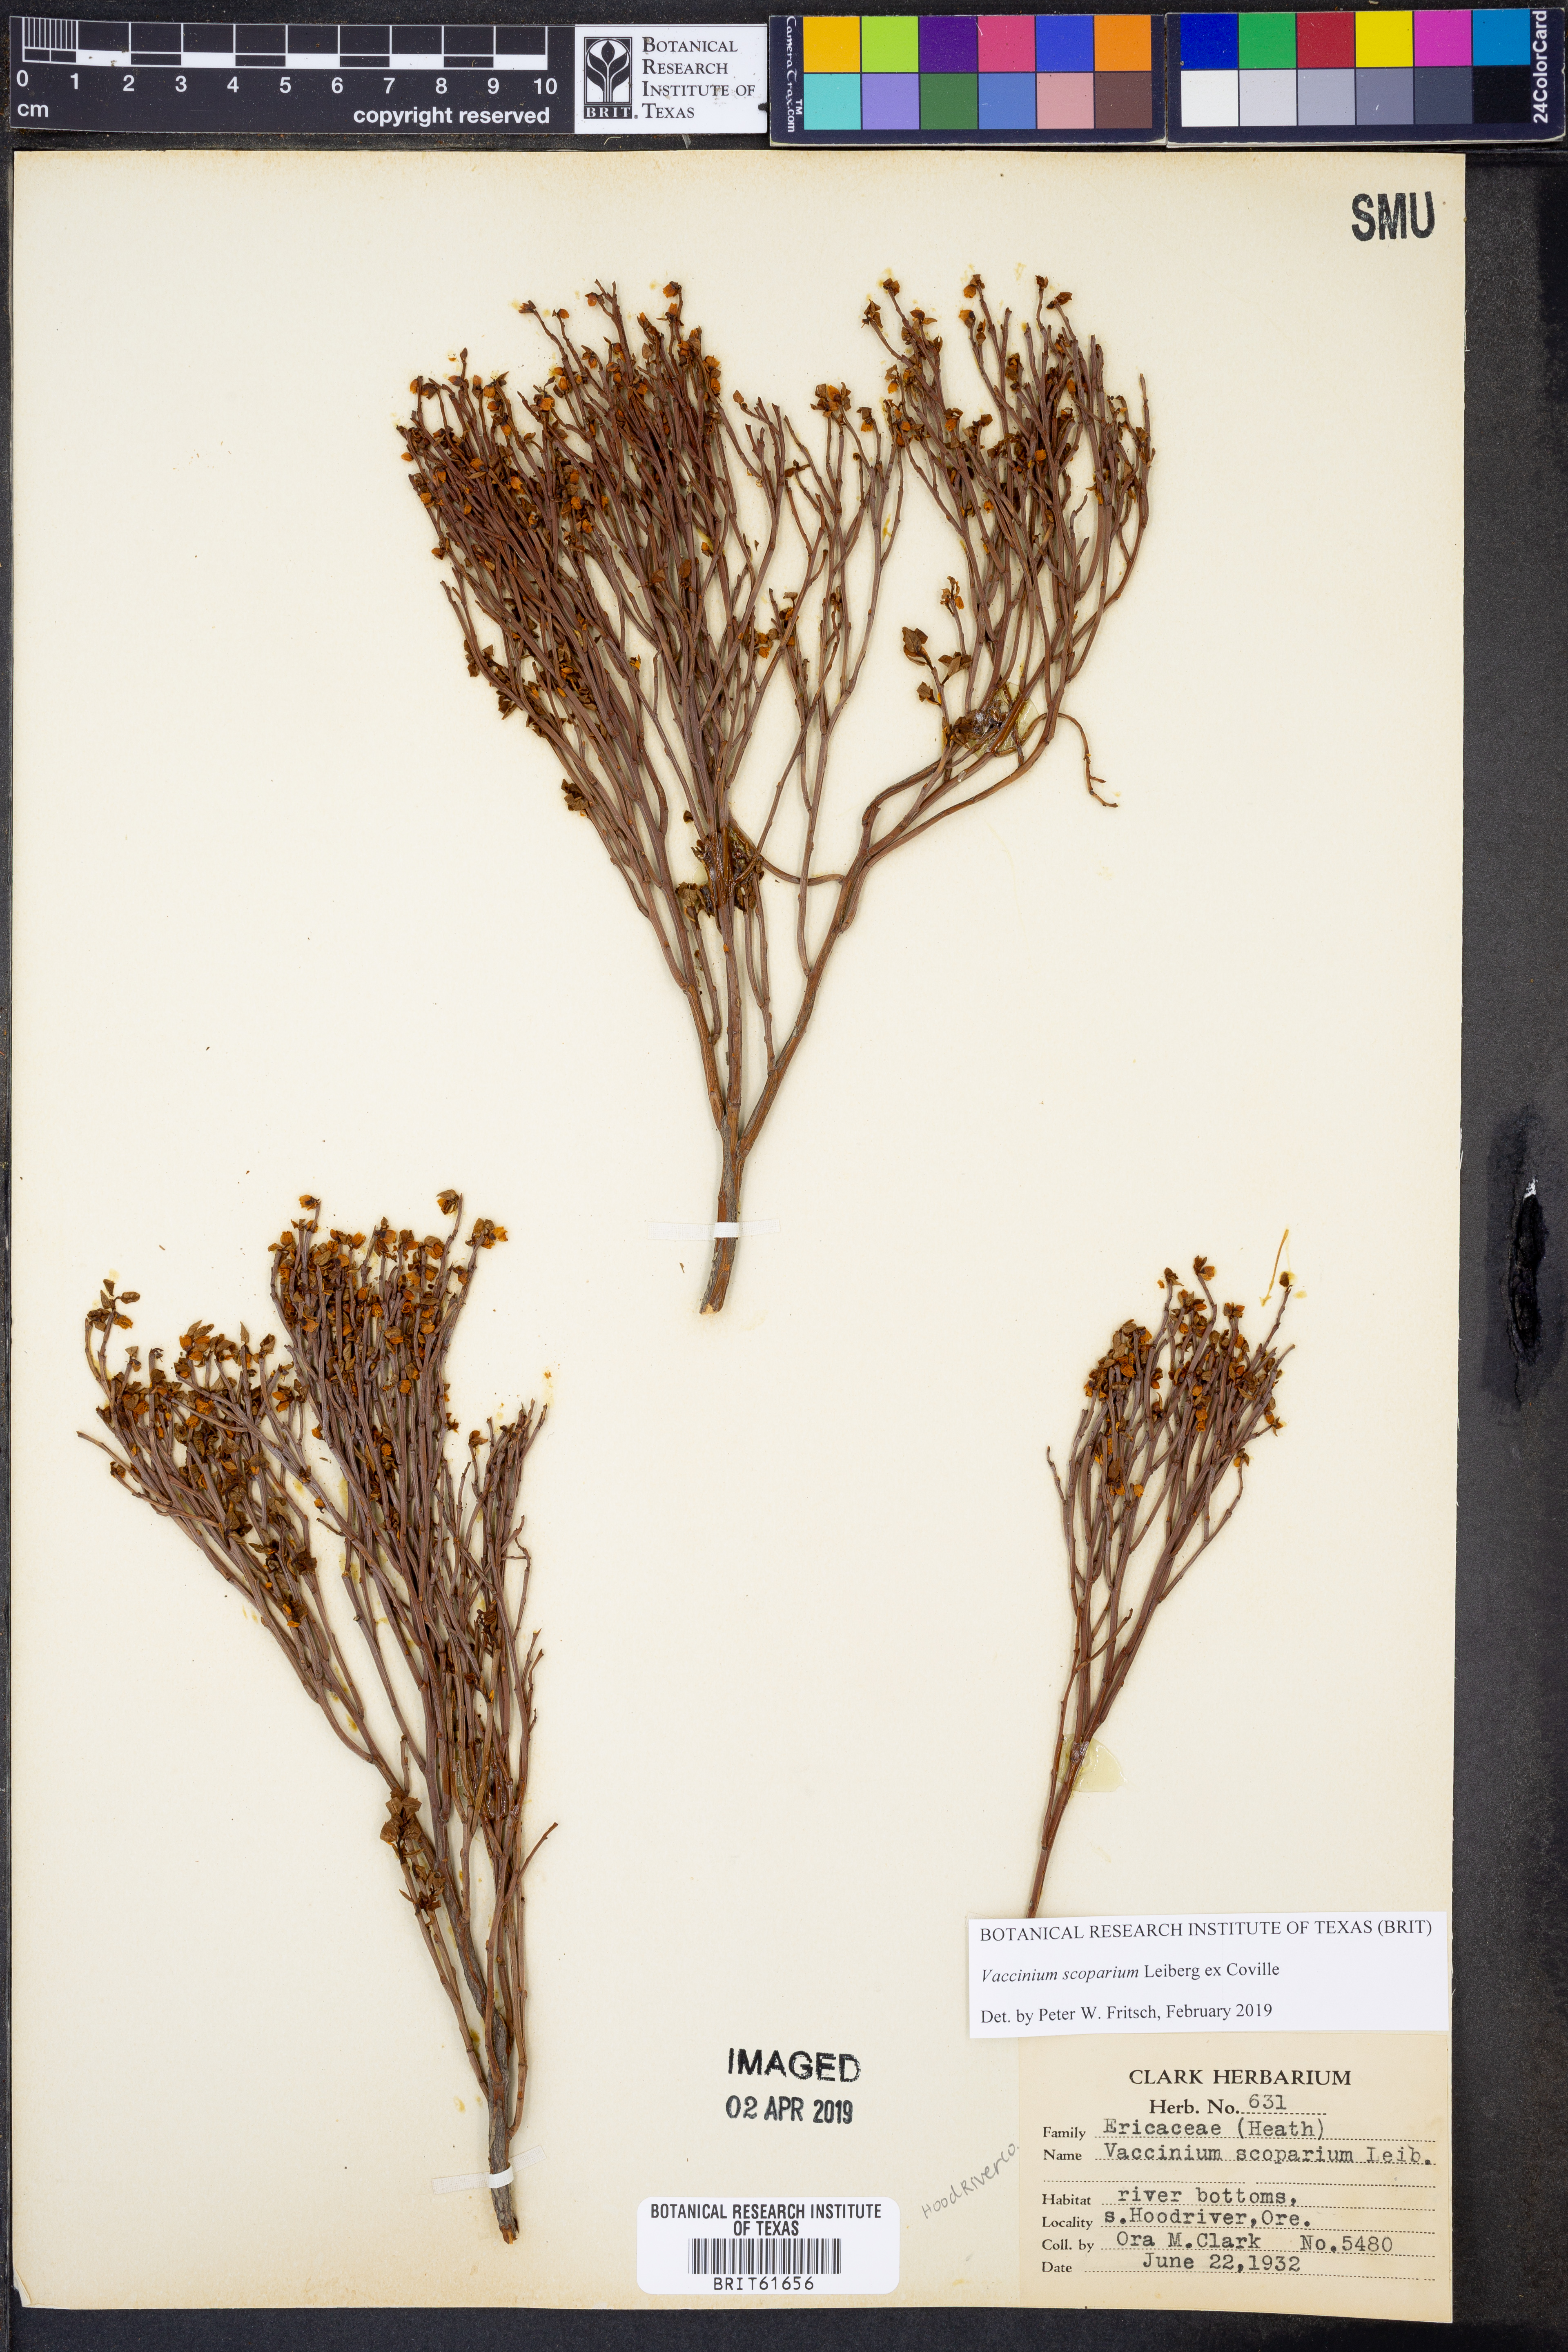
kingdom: Plantae
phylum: Tracheophyta
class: Magnoliopsida
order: Ericales
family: Ericaceae
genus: Vaccinium
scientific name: Vaccinium scoparium
